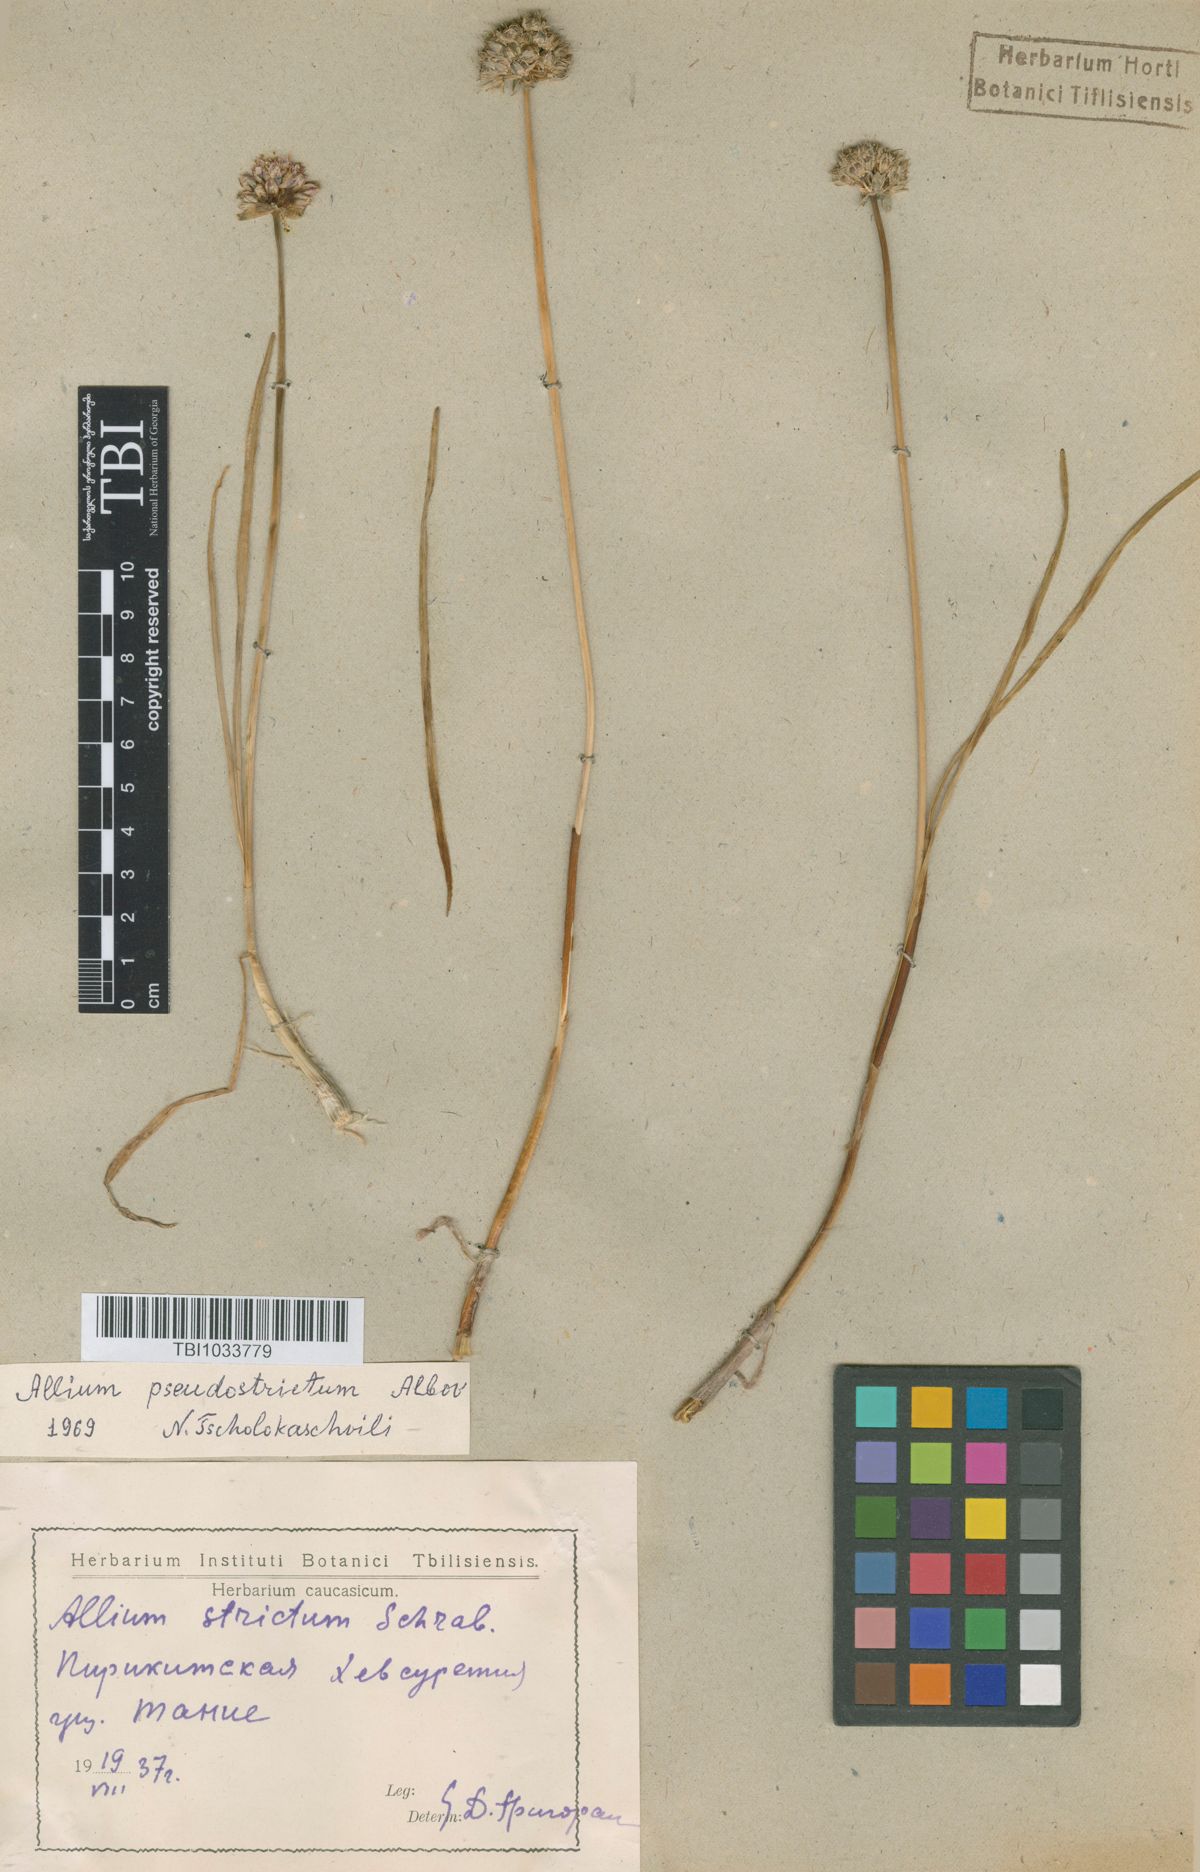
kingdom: Plantae
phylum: Tracheophyta
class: Liliopsida
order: Asparagales
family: Amaryllidaceae
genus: Allium
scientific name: Allium pseudostrictum
